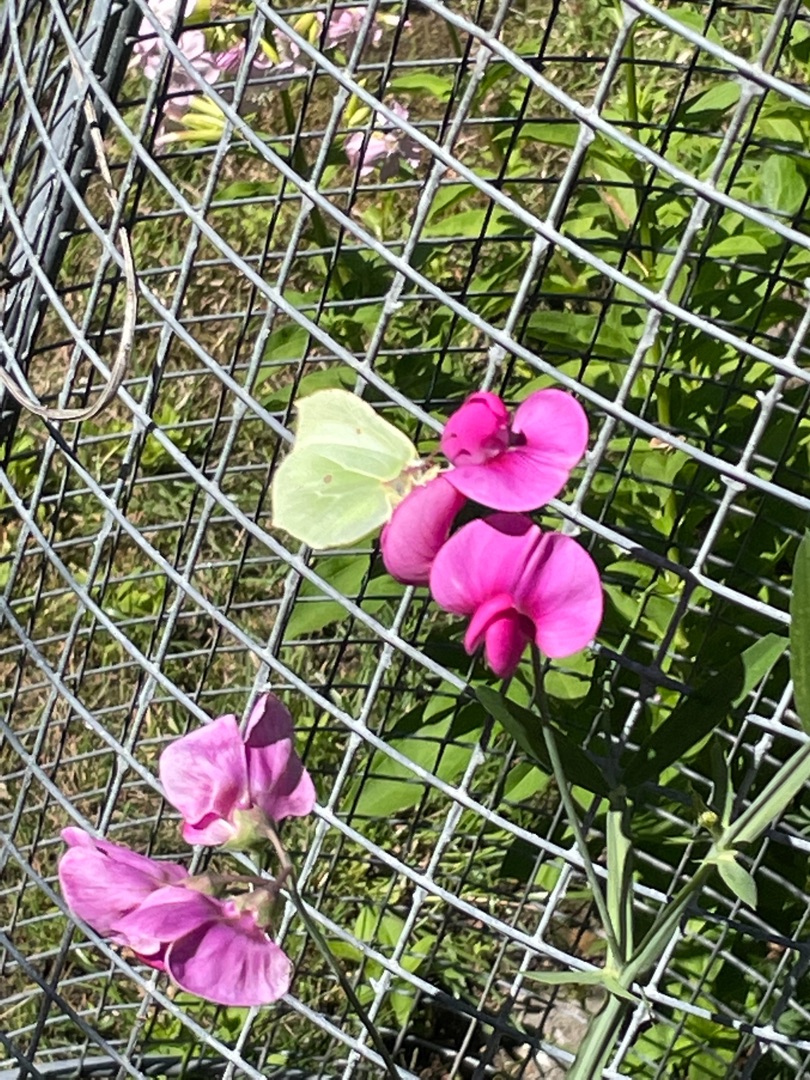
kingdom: Animalia
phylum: Arthropoda
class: Insecta
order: Lepidoptera
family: Pieridae
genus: Gonepteryx
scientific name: Gonepteryx rhamni
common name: Citronsommerfugl
